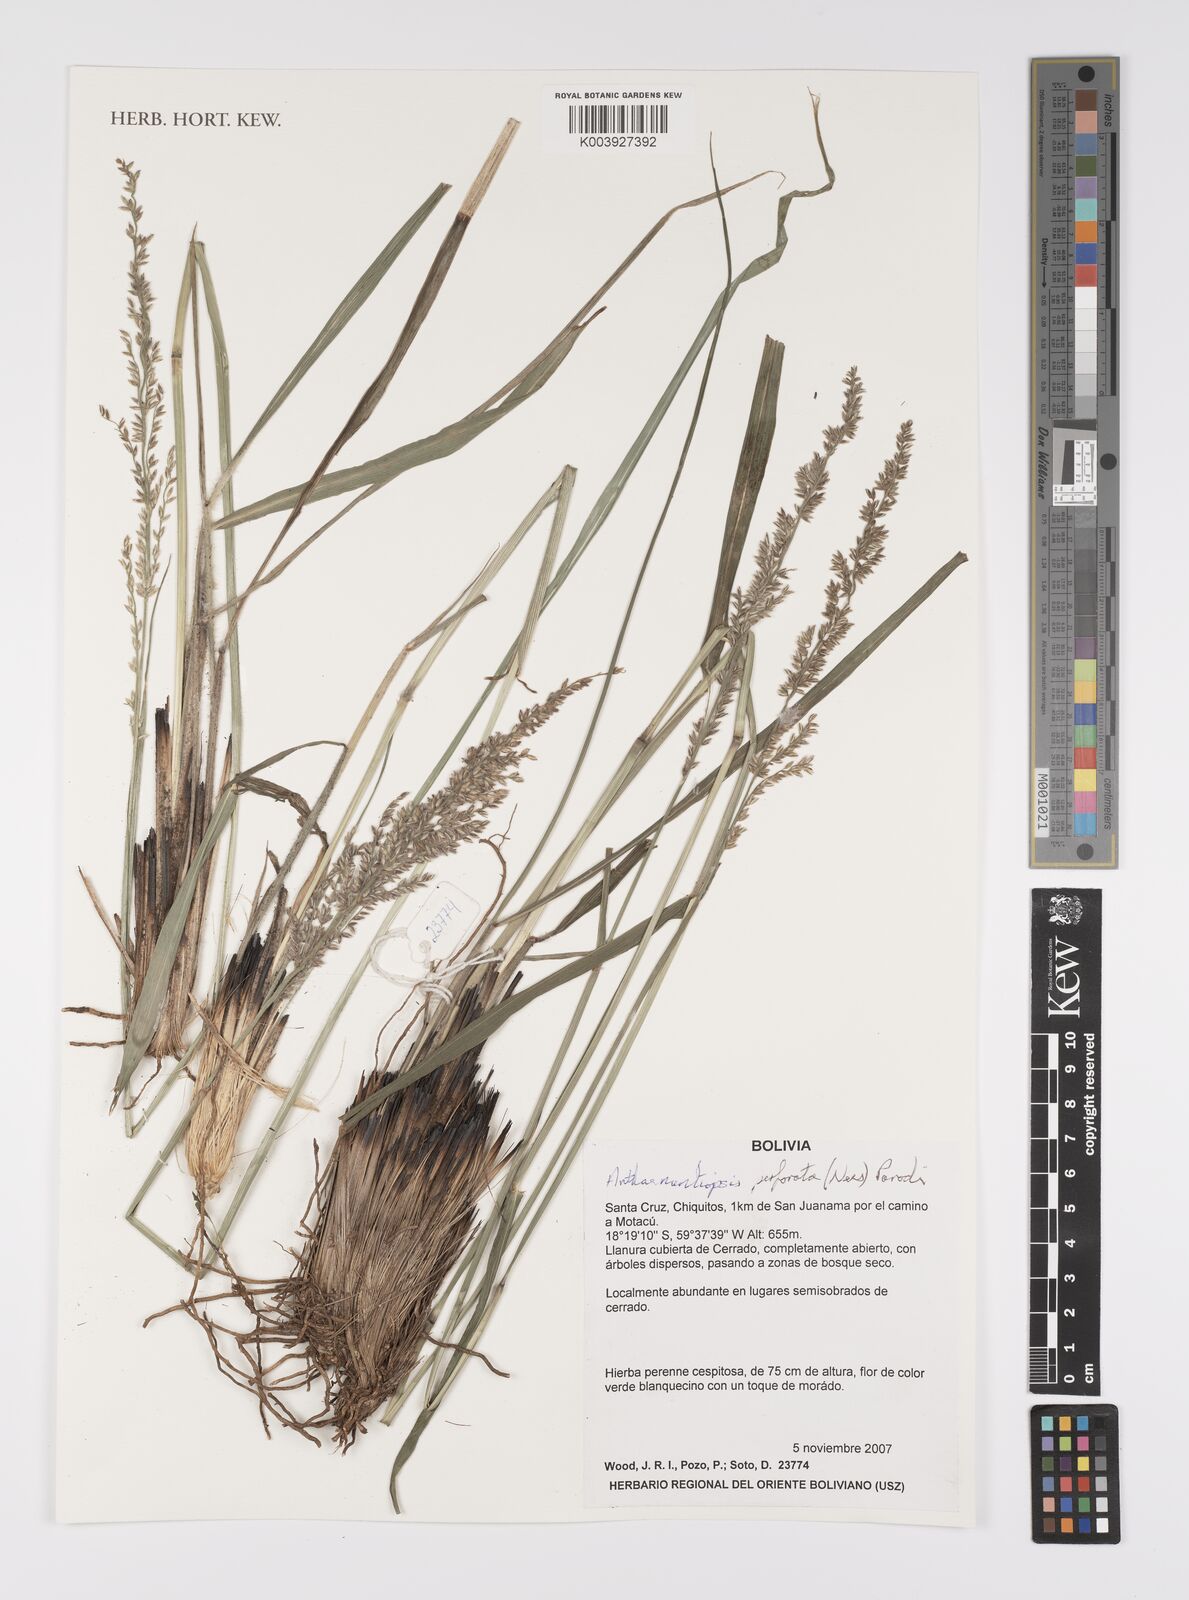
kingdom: Plantae
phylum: Tracheophyta
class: Liliopsida
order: Poales
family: Poaceae
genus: Anthaenantiopsis
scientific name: Anthaenantiopsis perforata
